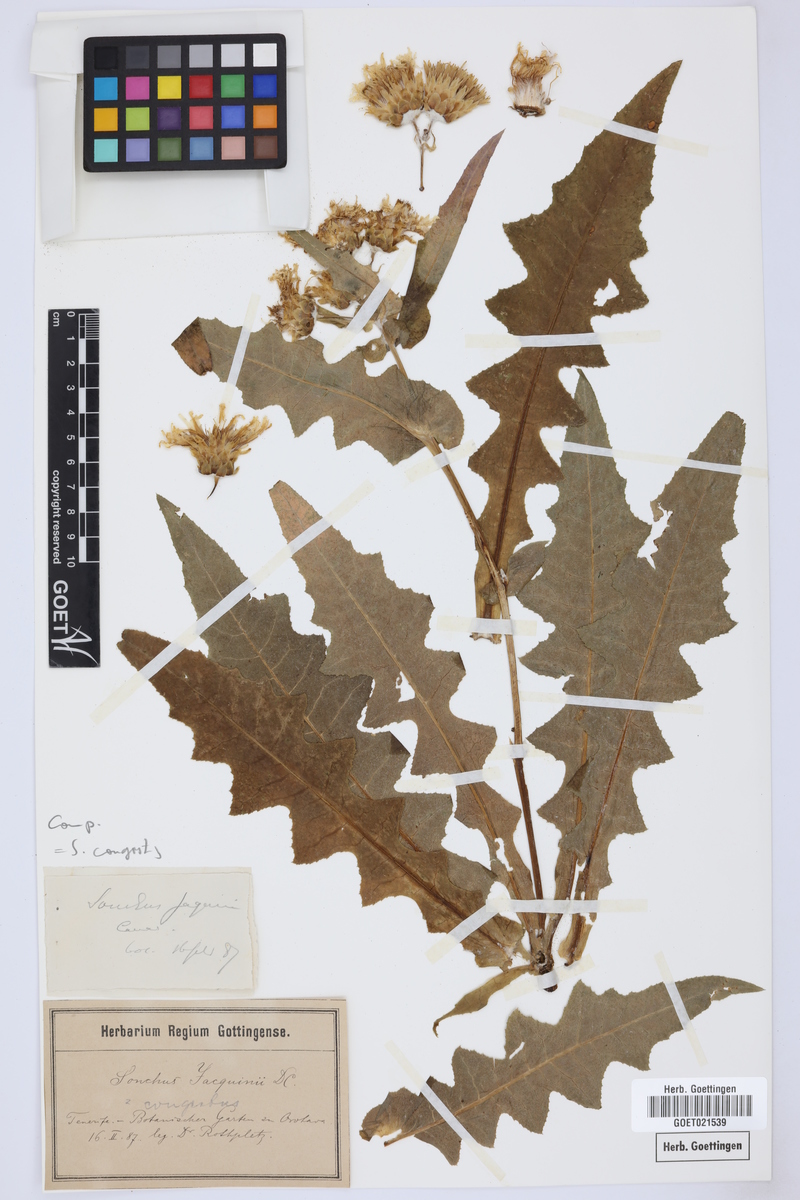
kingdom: Plantae
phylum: Tracheophyta
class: Magnoliopsida
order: Asterales
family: Asteraceae
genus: Sonchus
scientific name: Sonchus congestus
